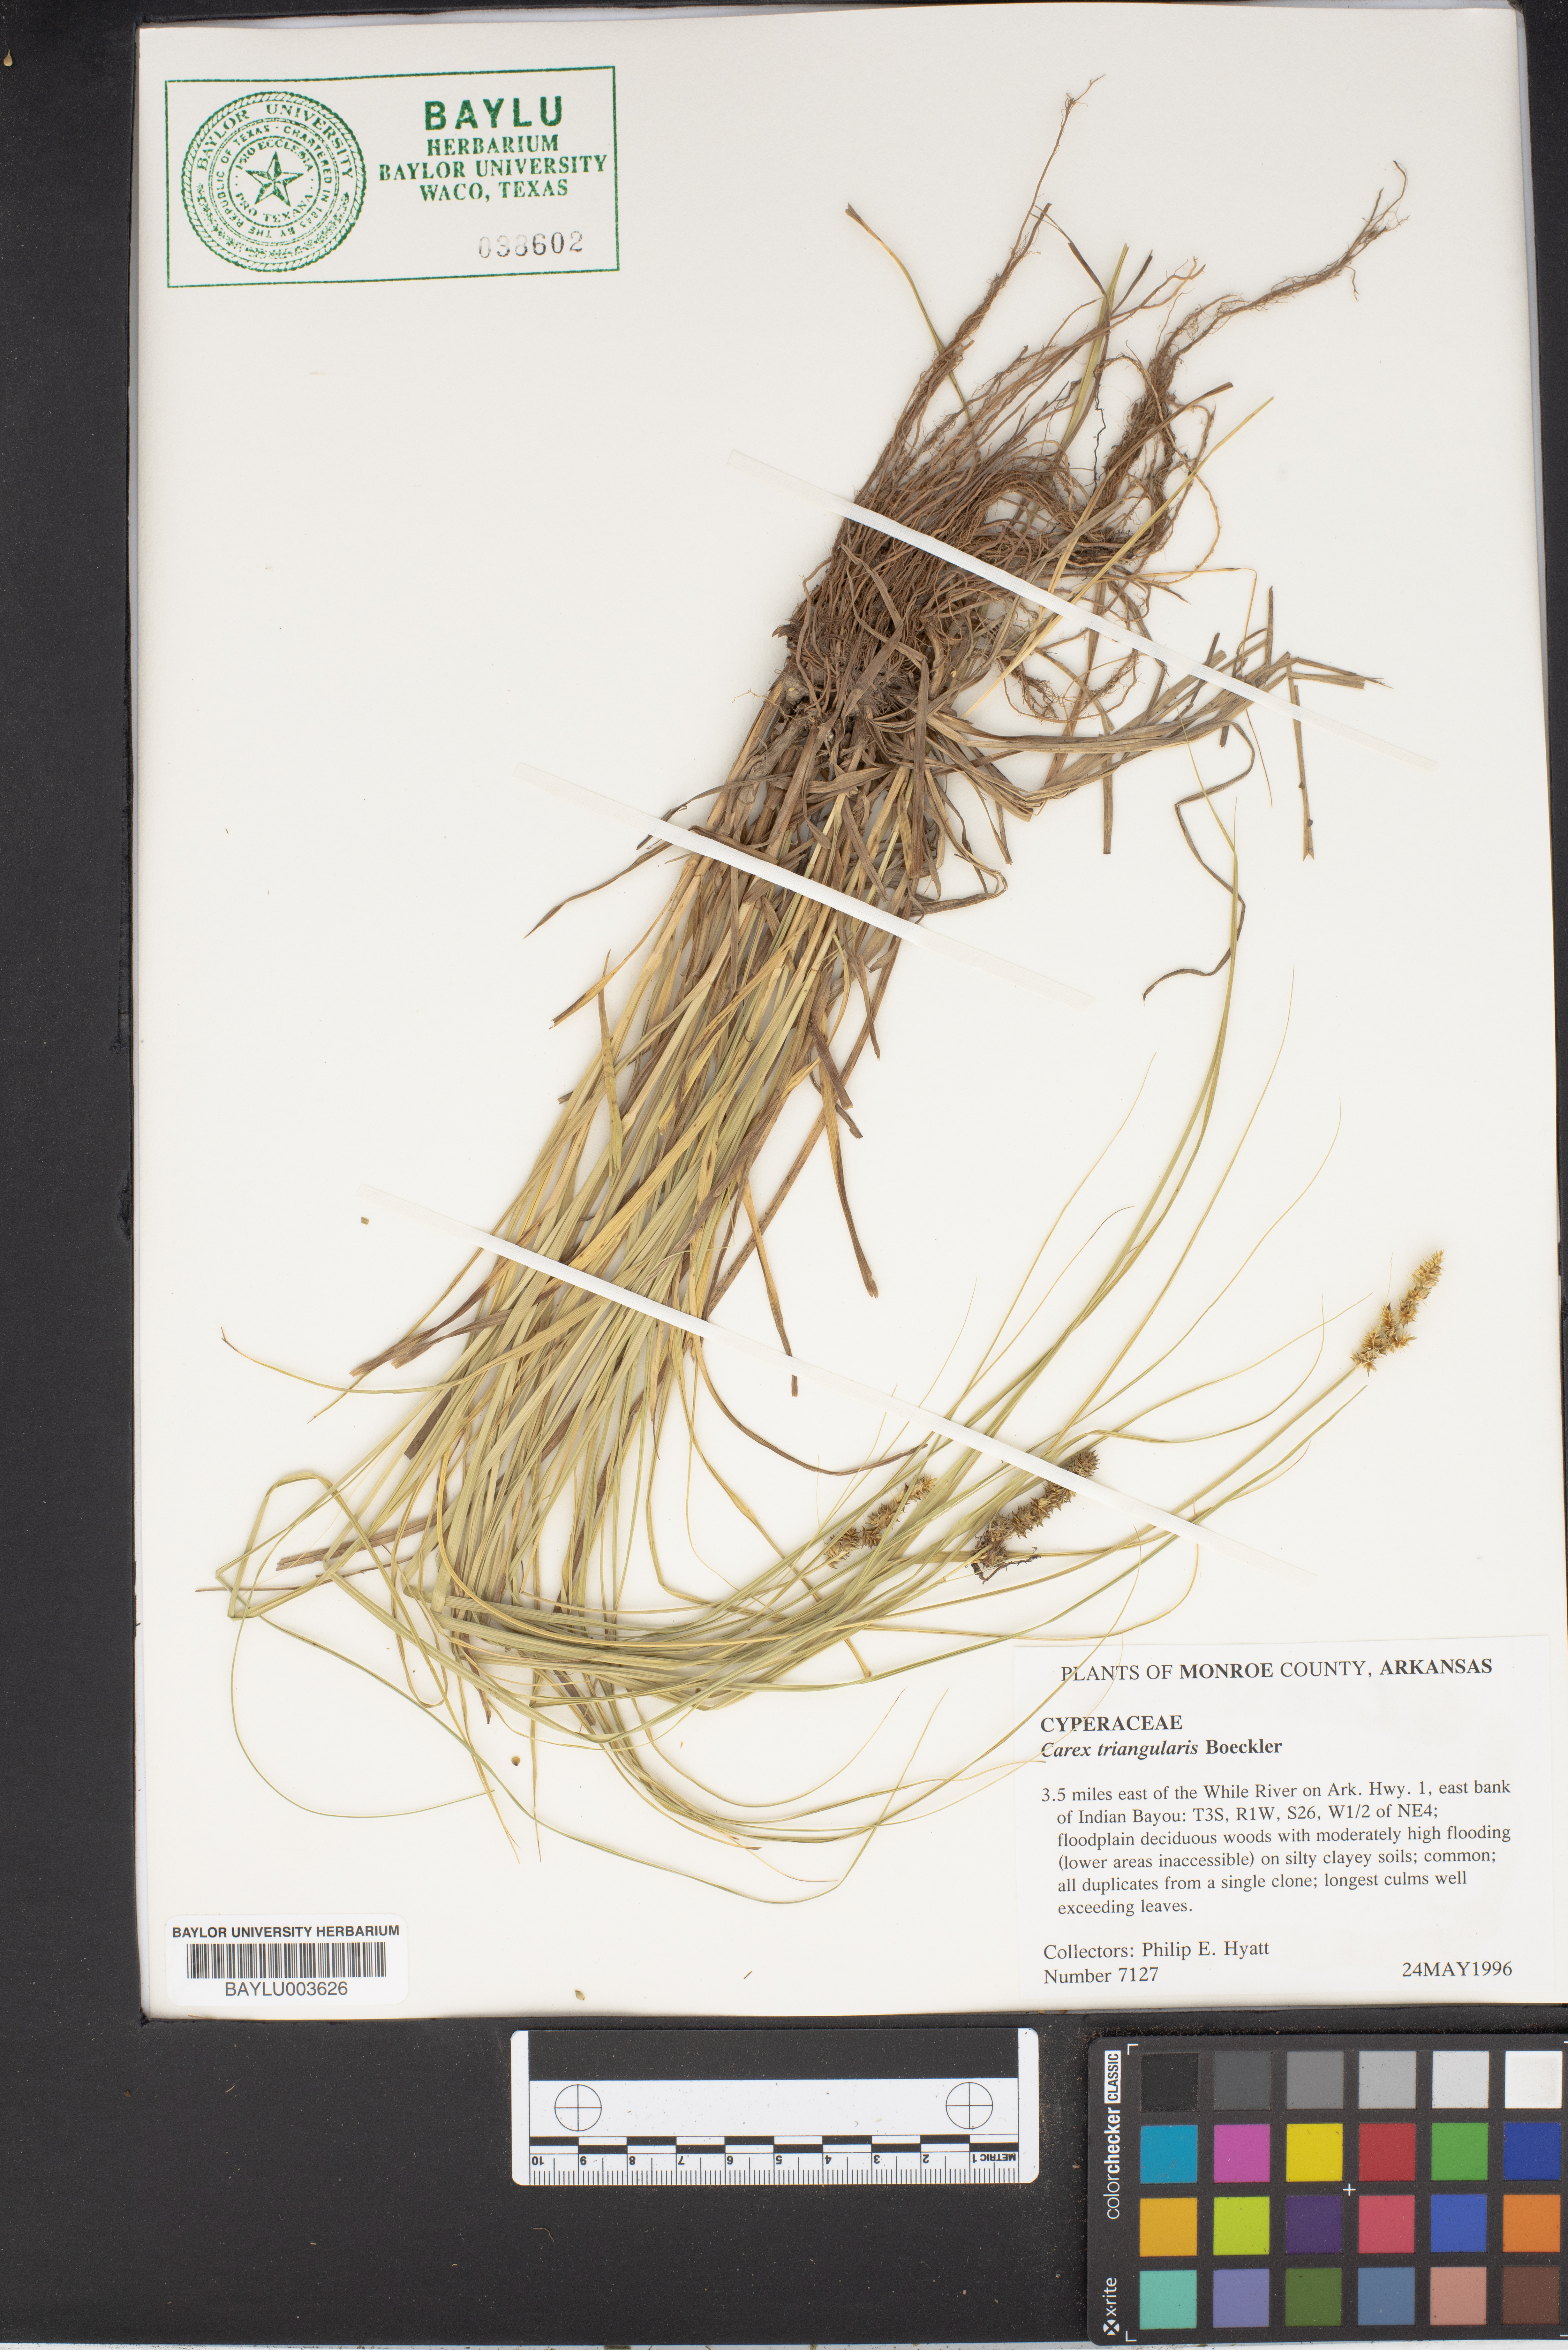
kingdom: Plantae
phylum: Tracheophyta
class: Liliopsida
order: Poales
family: Cyperaceae
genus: Carex
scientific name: Carex triangularis
